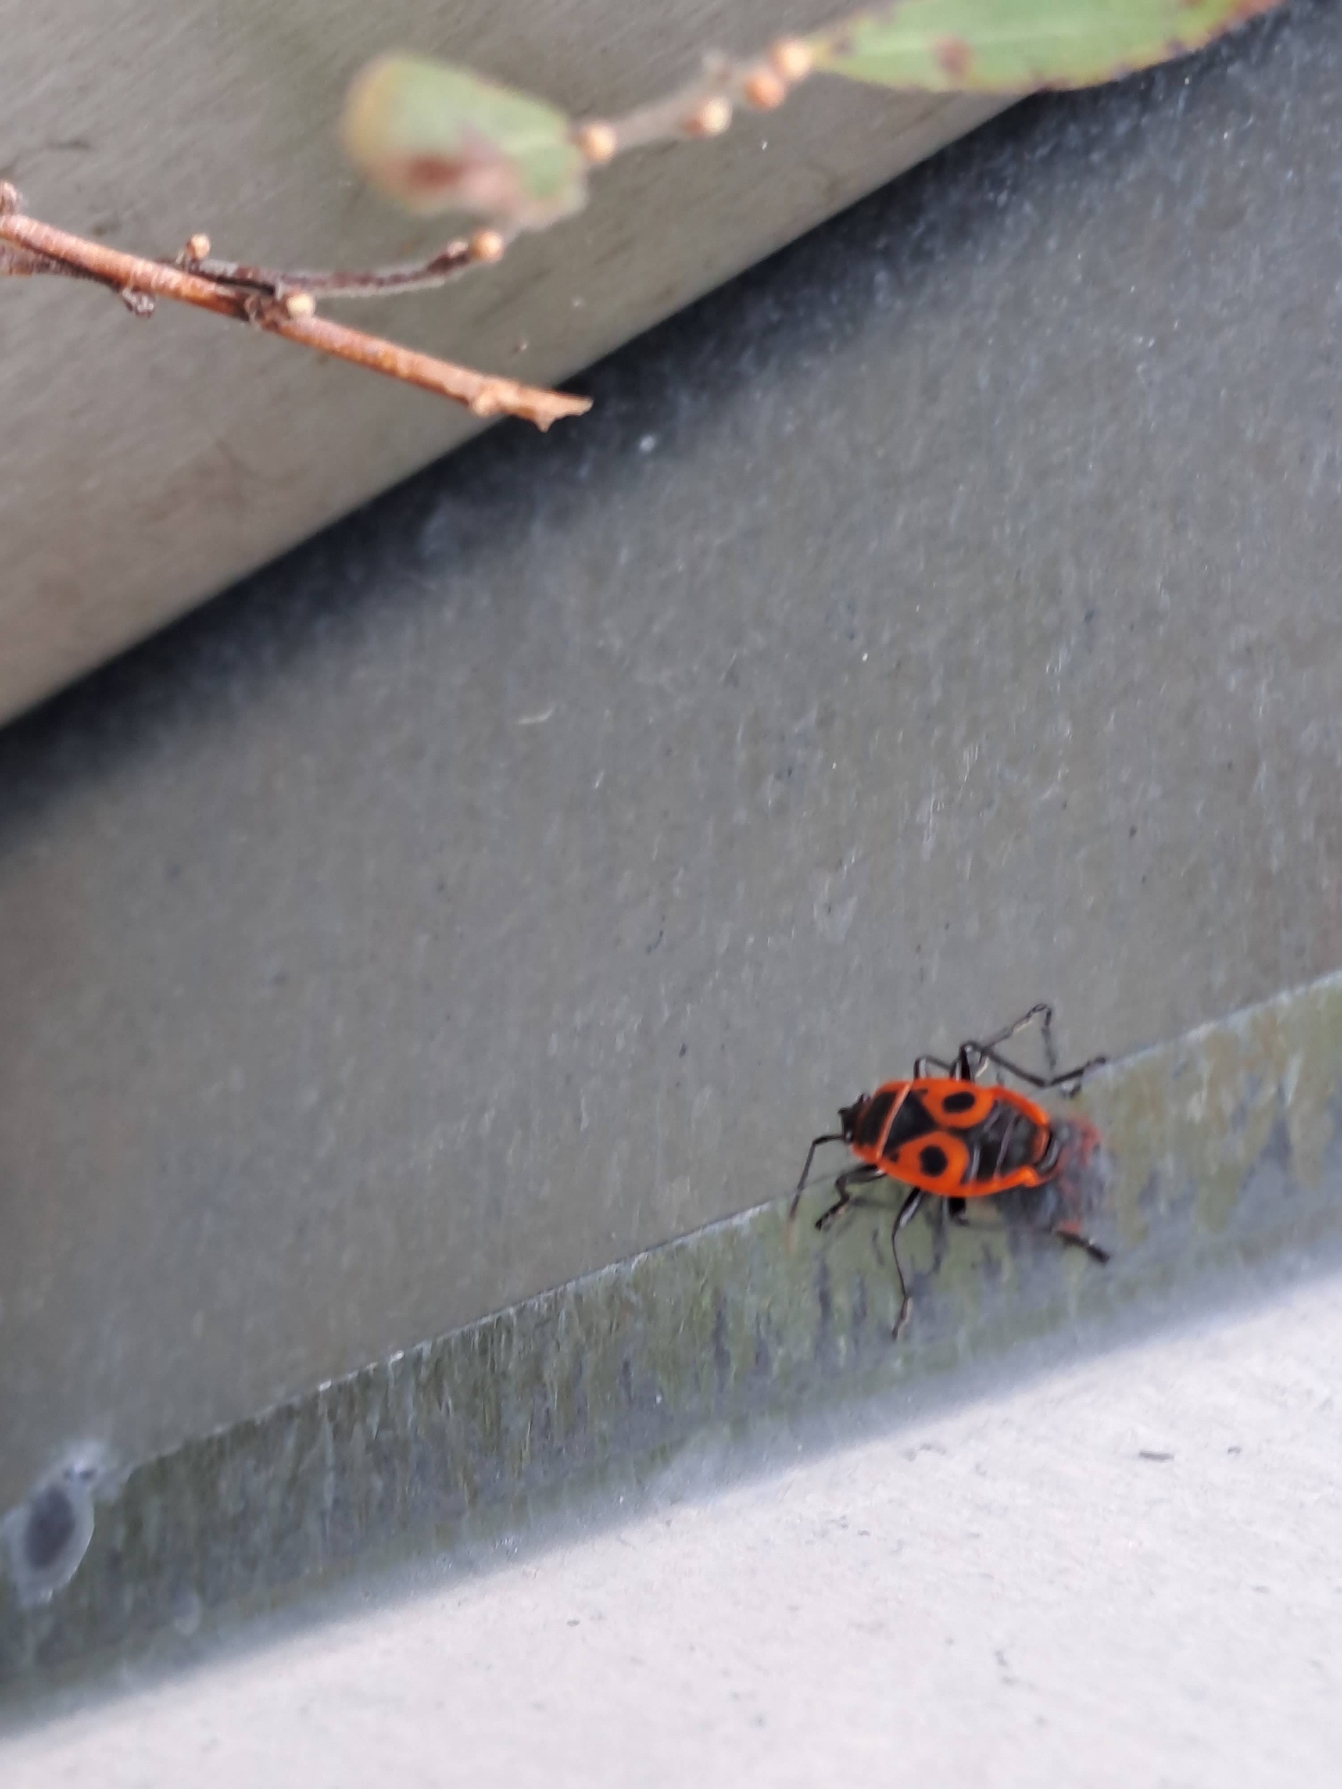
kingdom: Animalia
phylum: Arthropoda
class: Insecta
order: Hemiptera
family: Pyrrhocoridae
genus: Pyrrhocoris
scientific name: Pyrrhocoris apterus
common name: Ildtæge
